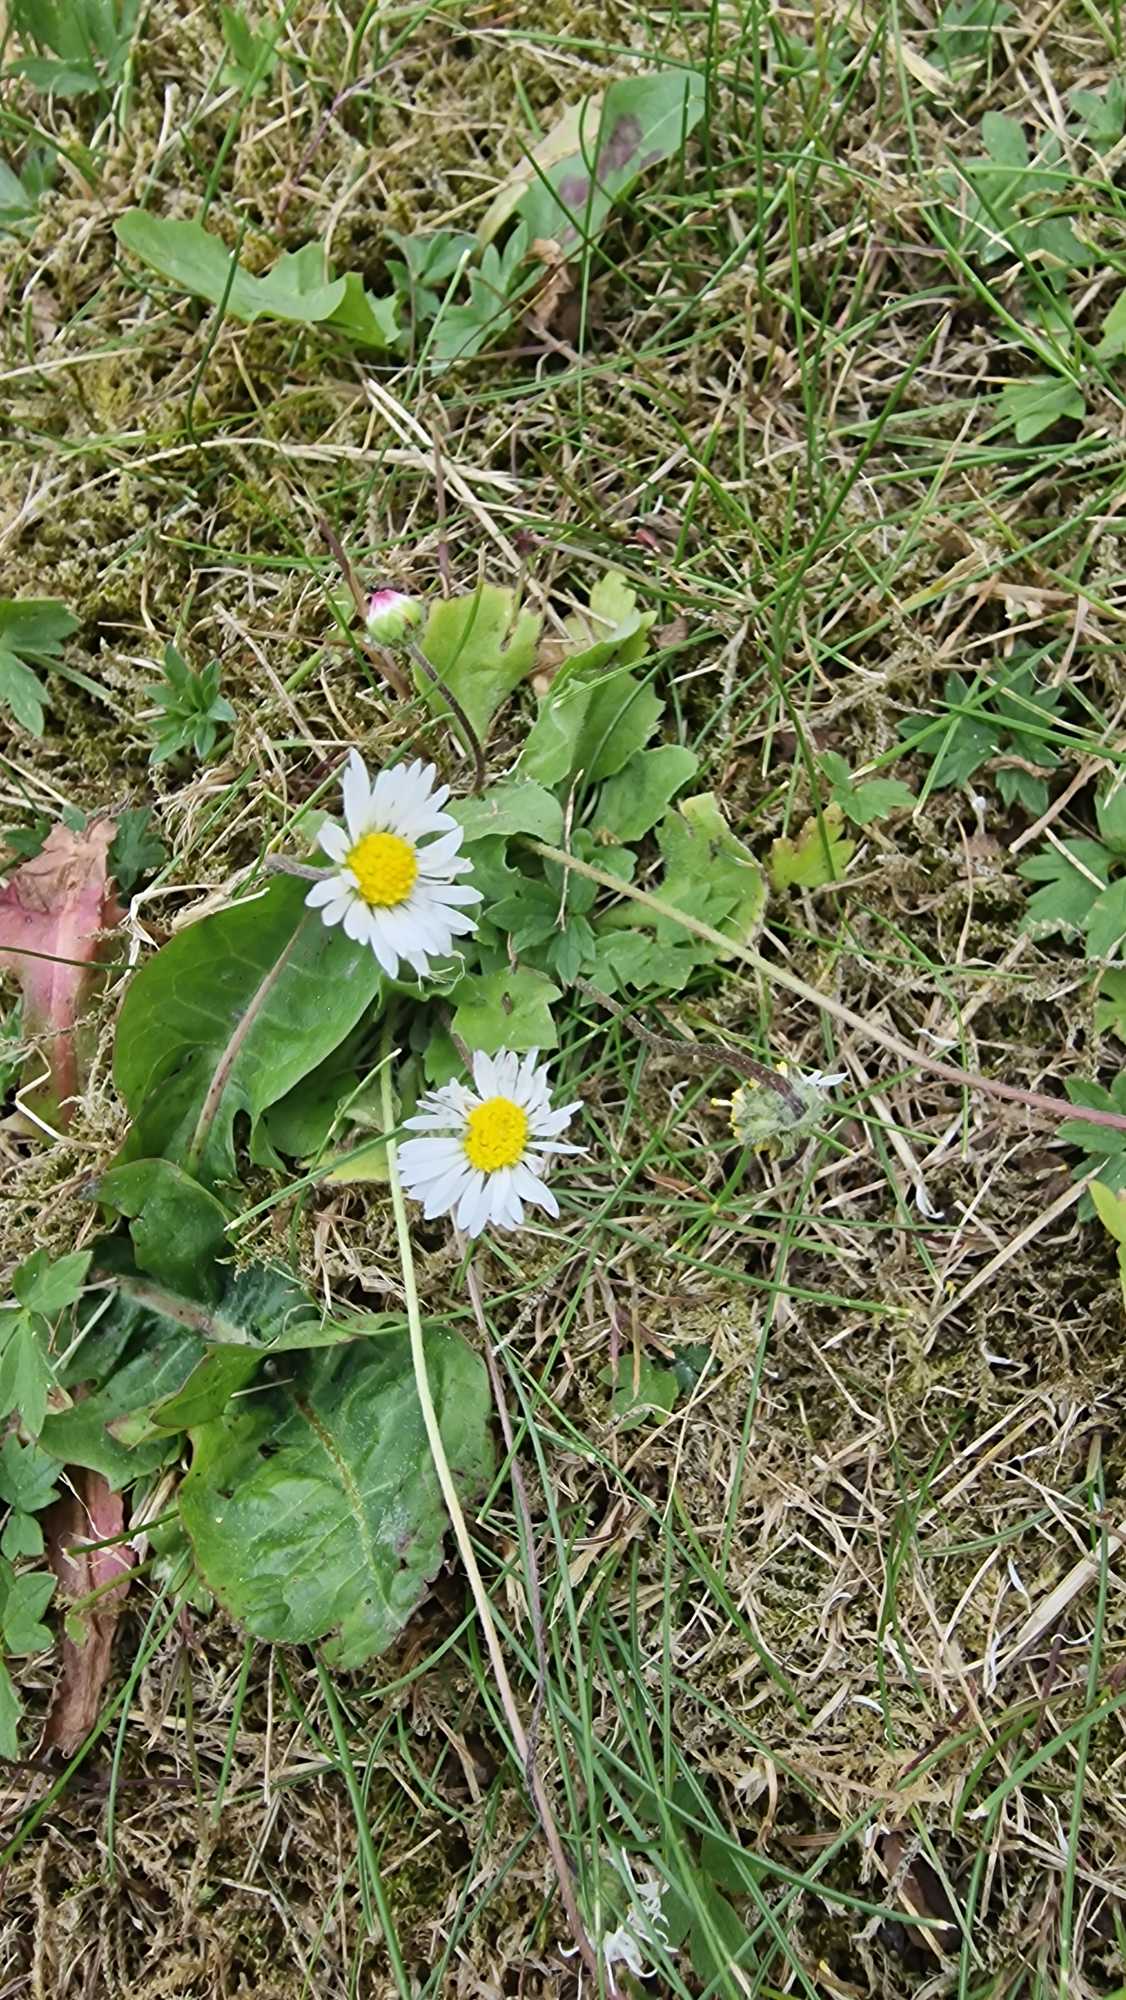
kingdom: Plantae
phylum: Tracheophyta
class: Magnoliopsida
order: Asterales
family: Asteraceae
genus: Bellis
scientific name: Bellis perennis
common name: Tusindfryd
